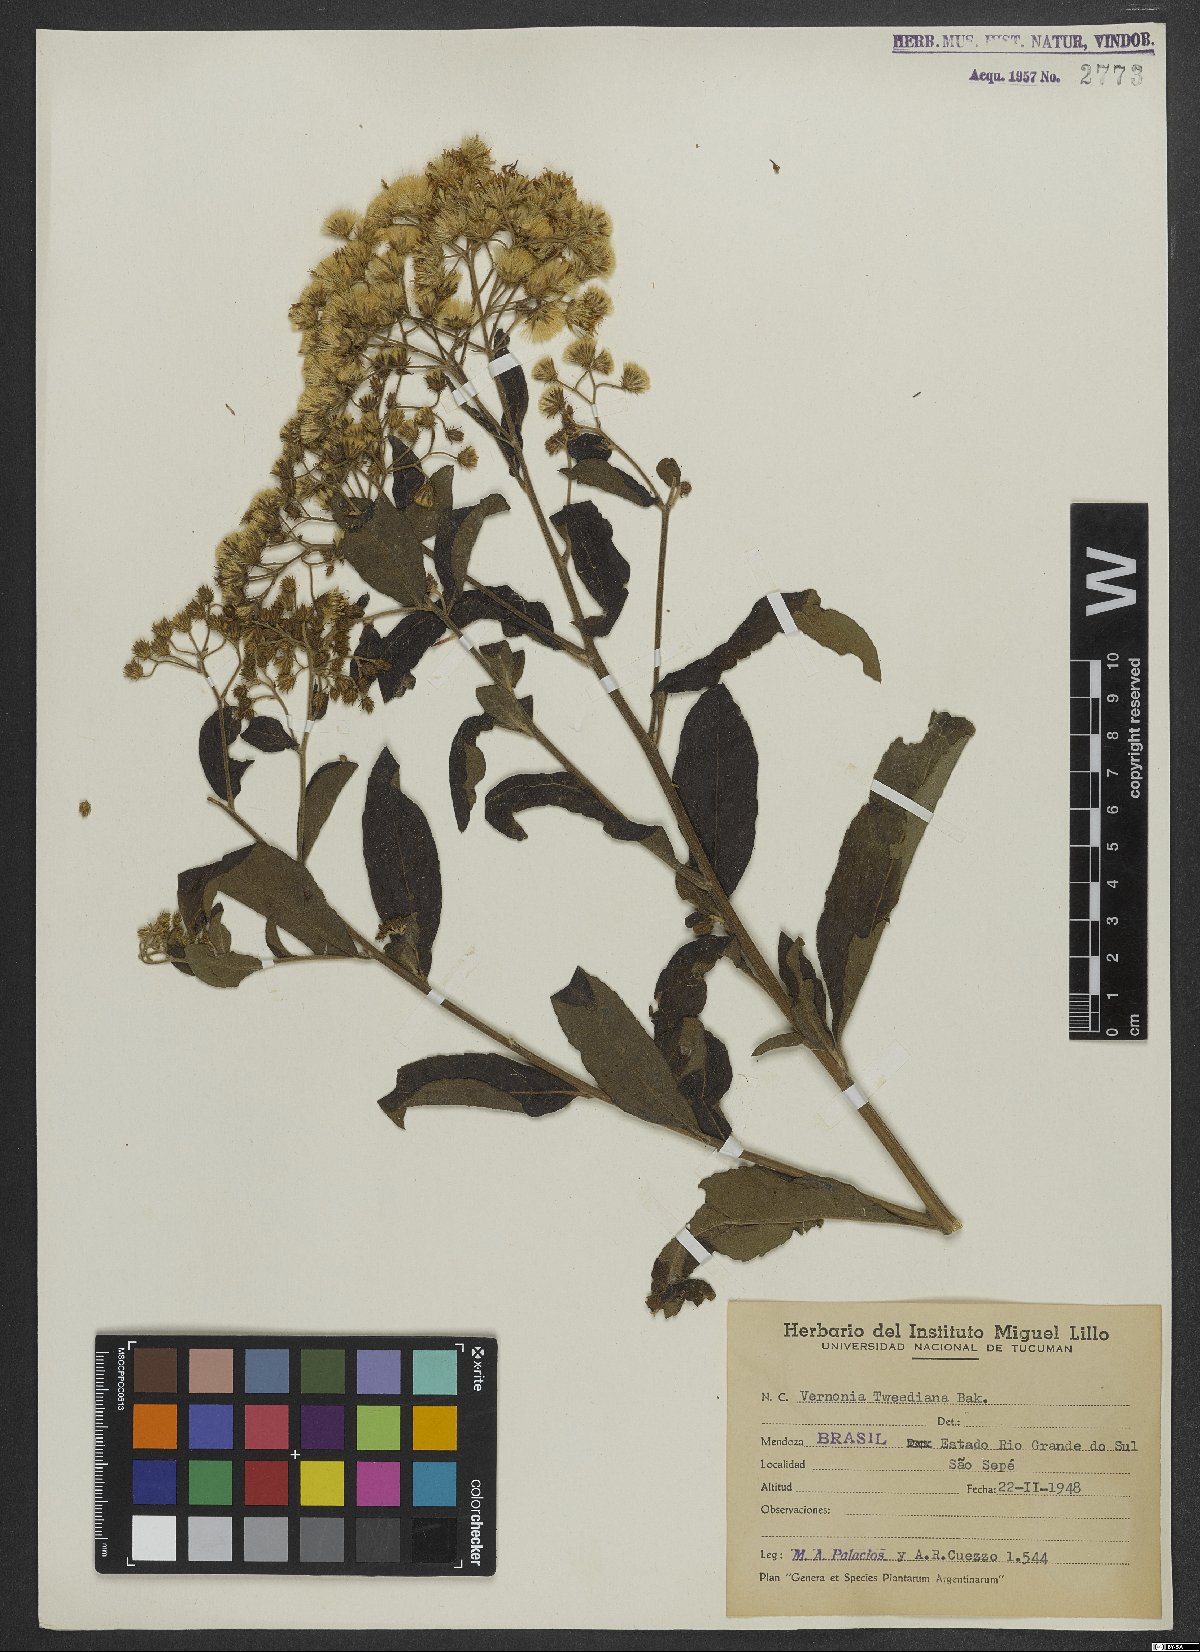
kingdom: Plantae
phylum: Tracheophyta
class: Magnoliopsida
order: Asterales
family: Asteraceae
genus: Vernonanthura
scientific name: Vernonanthura tweedieana
